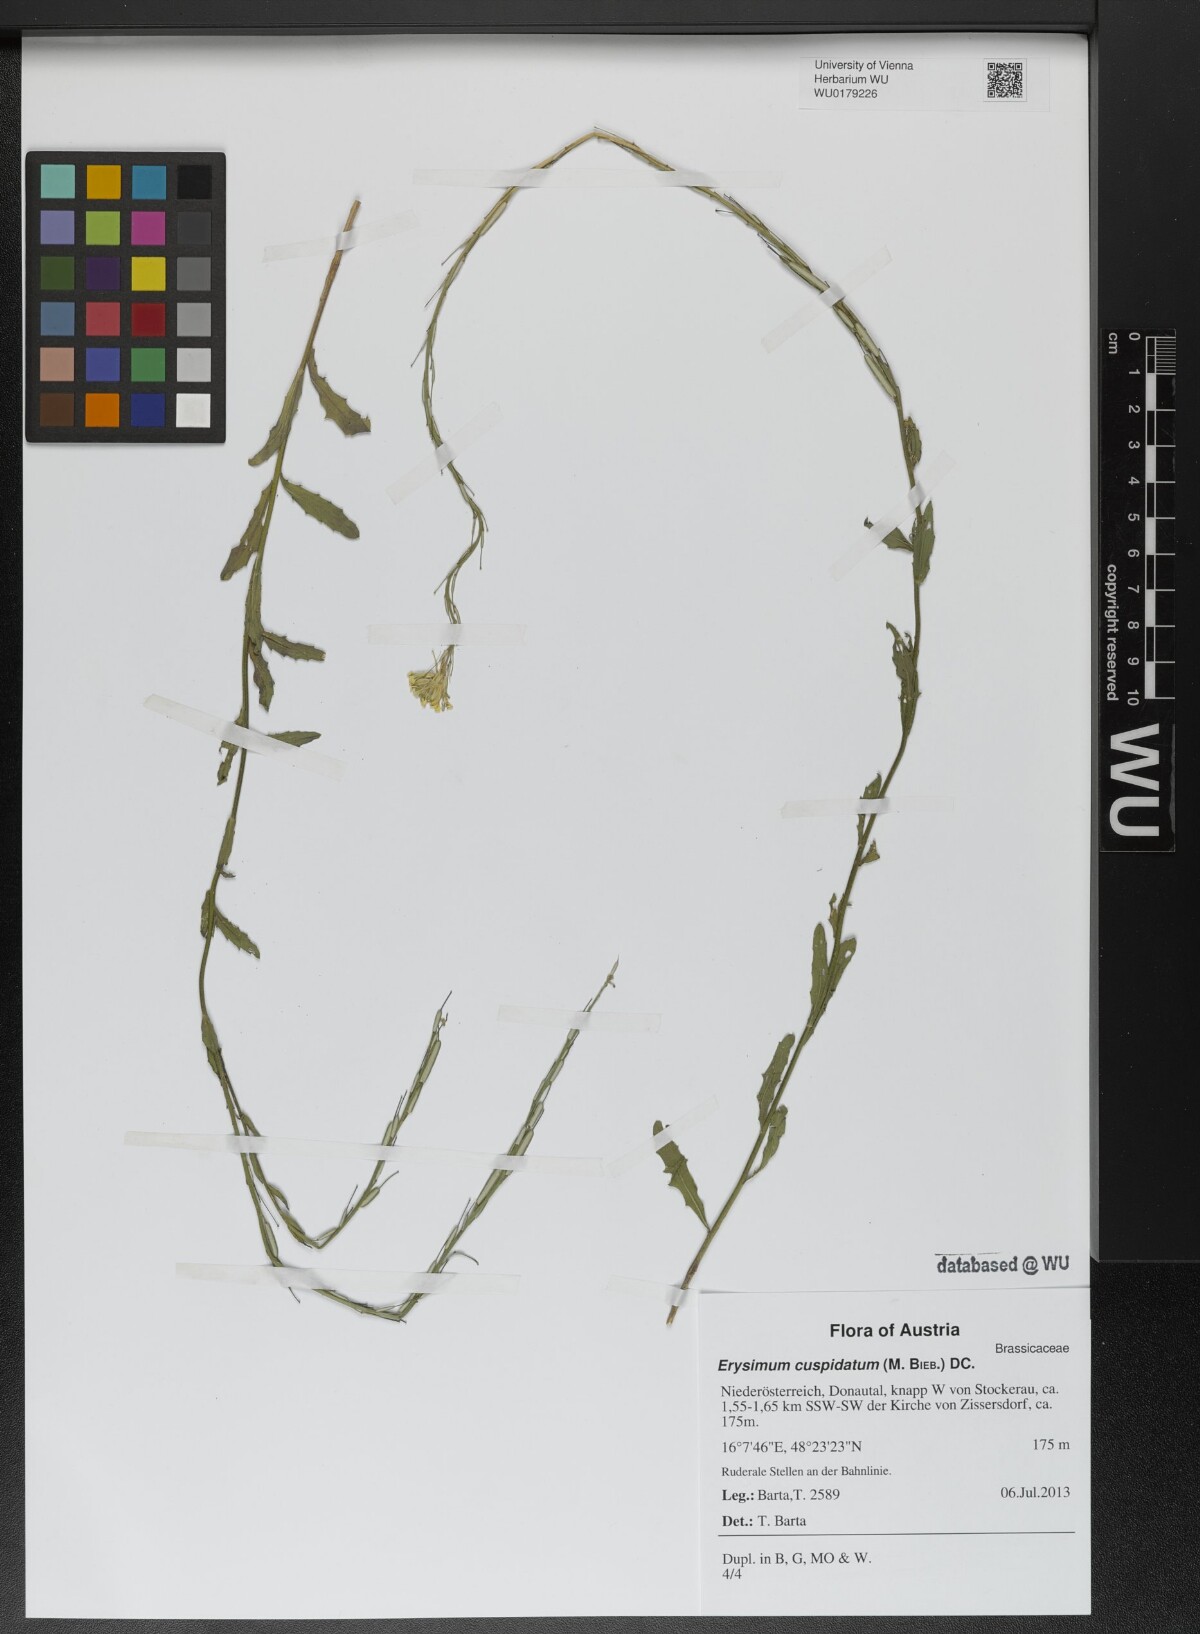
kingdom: Plantae
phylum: Tracheophyta
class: Magnoliopsida
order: Brassicales
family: Brassicaceae
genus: Erysimum
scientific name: Erysimum cuspidatum
